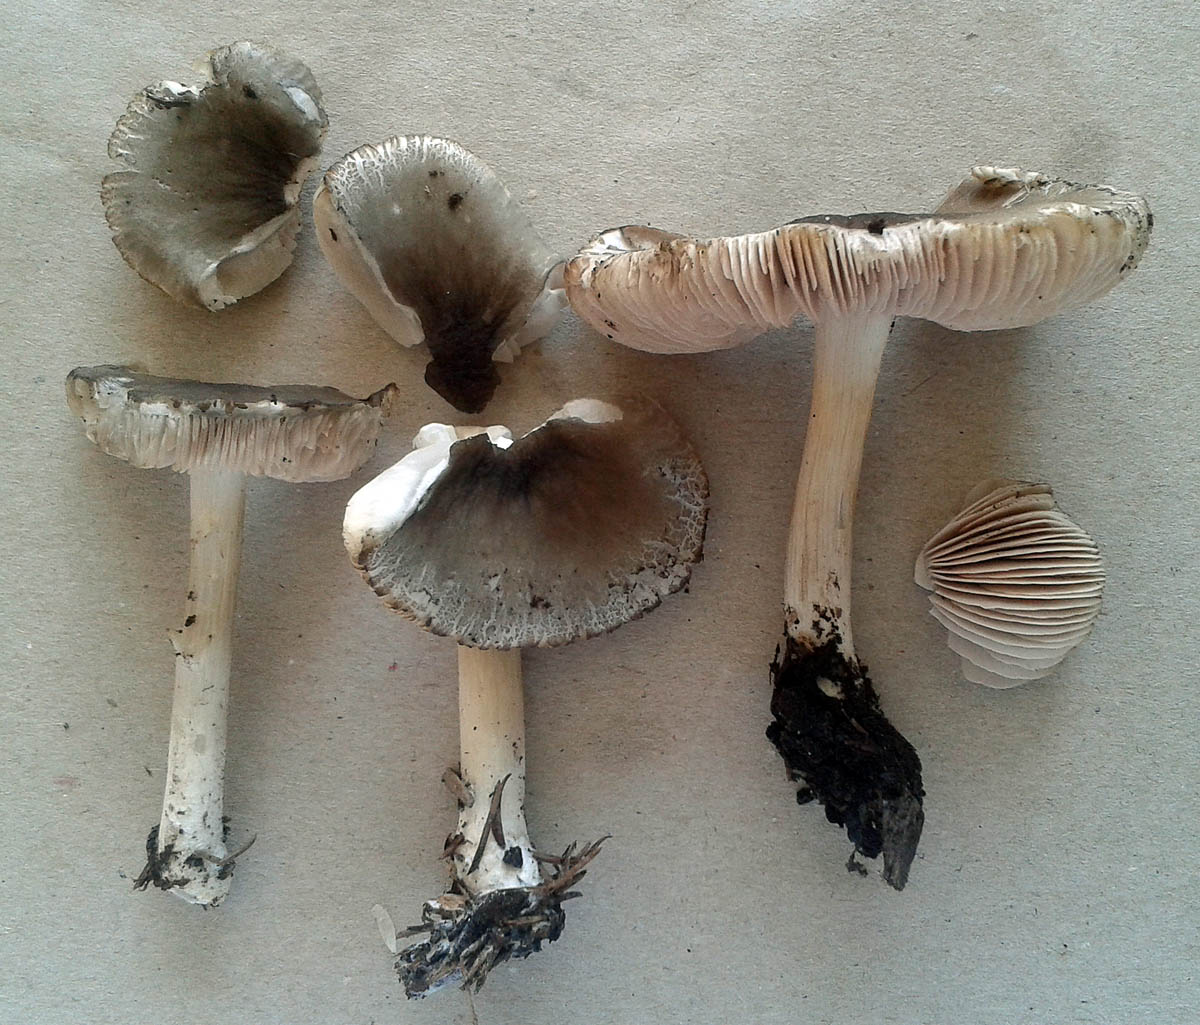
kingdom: Fungi
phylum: Basidiomycota
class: Agaricomycetes
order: Agaricales
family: Pluteaceae
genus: Pluteus
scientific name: Pluteus
